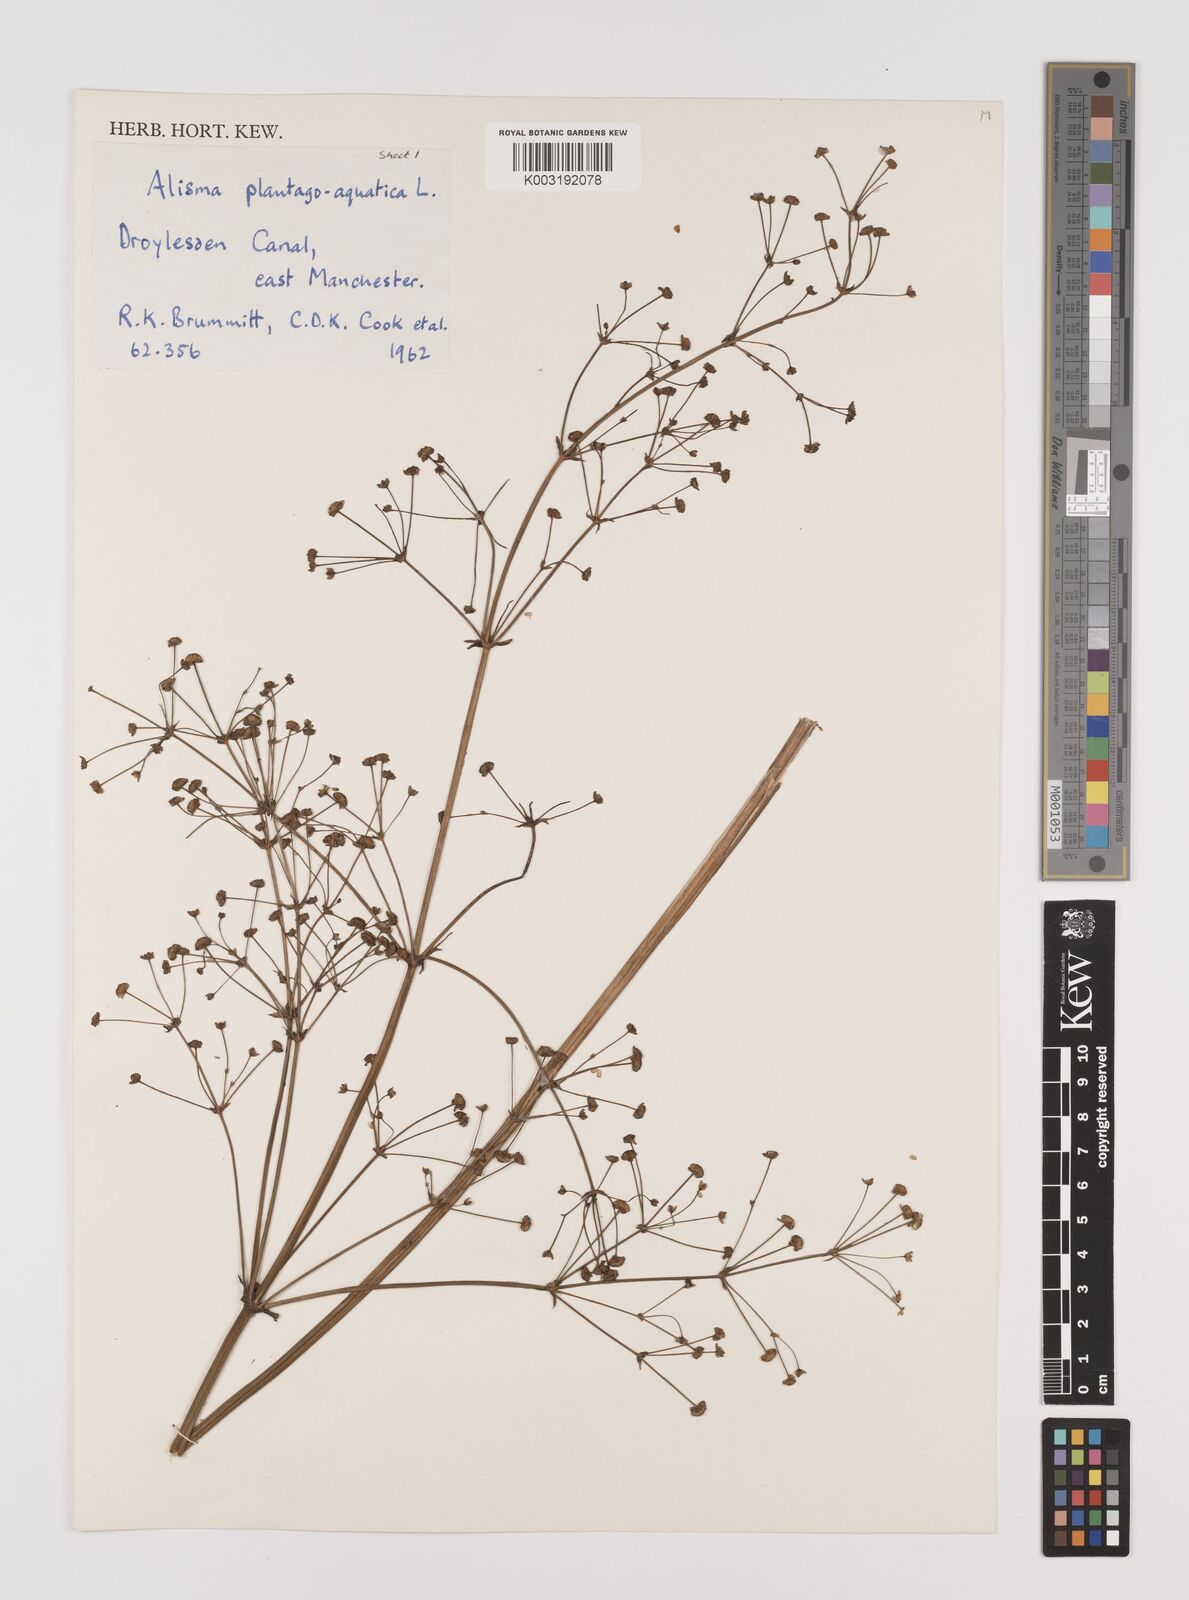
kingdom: Plantae
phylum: Tracheophyta
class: Liliopsida
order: Alismatales
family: Alismataceae
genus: Alisma
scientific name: Alisma plantago-aquatica
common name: Water-plantain
